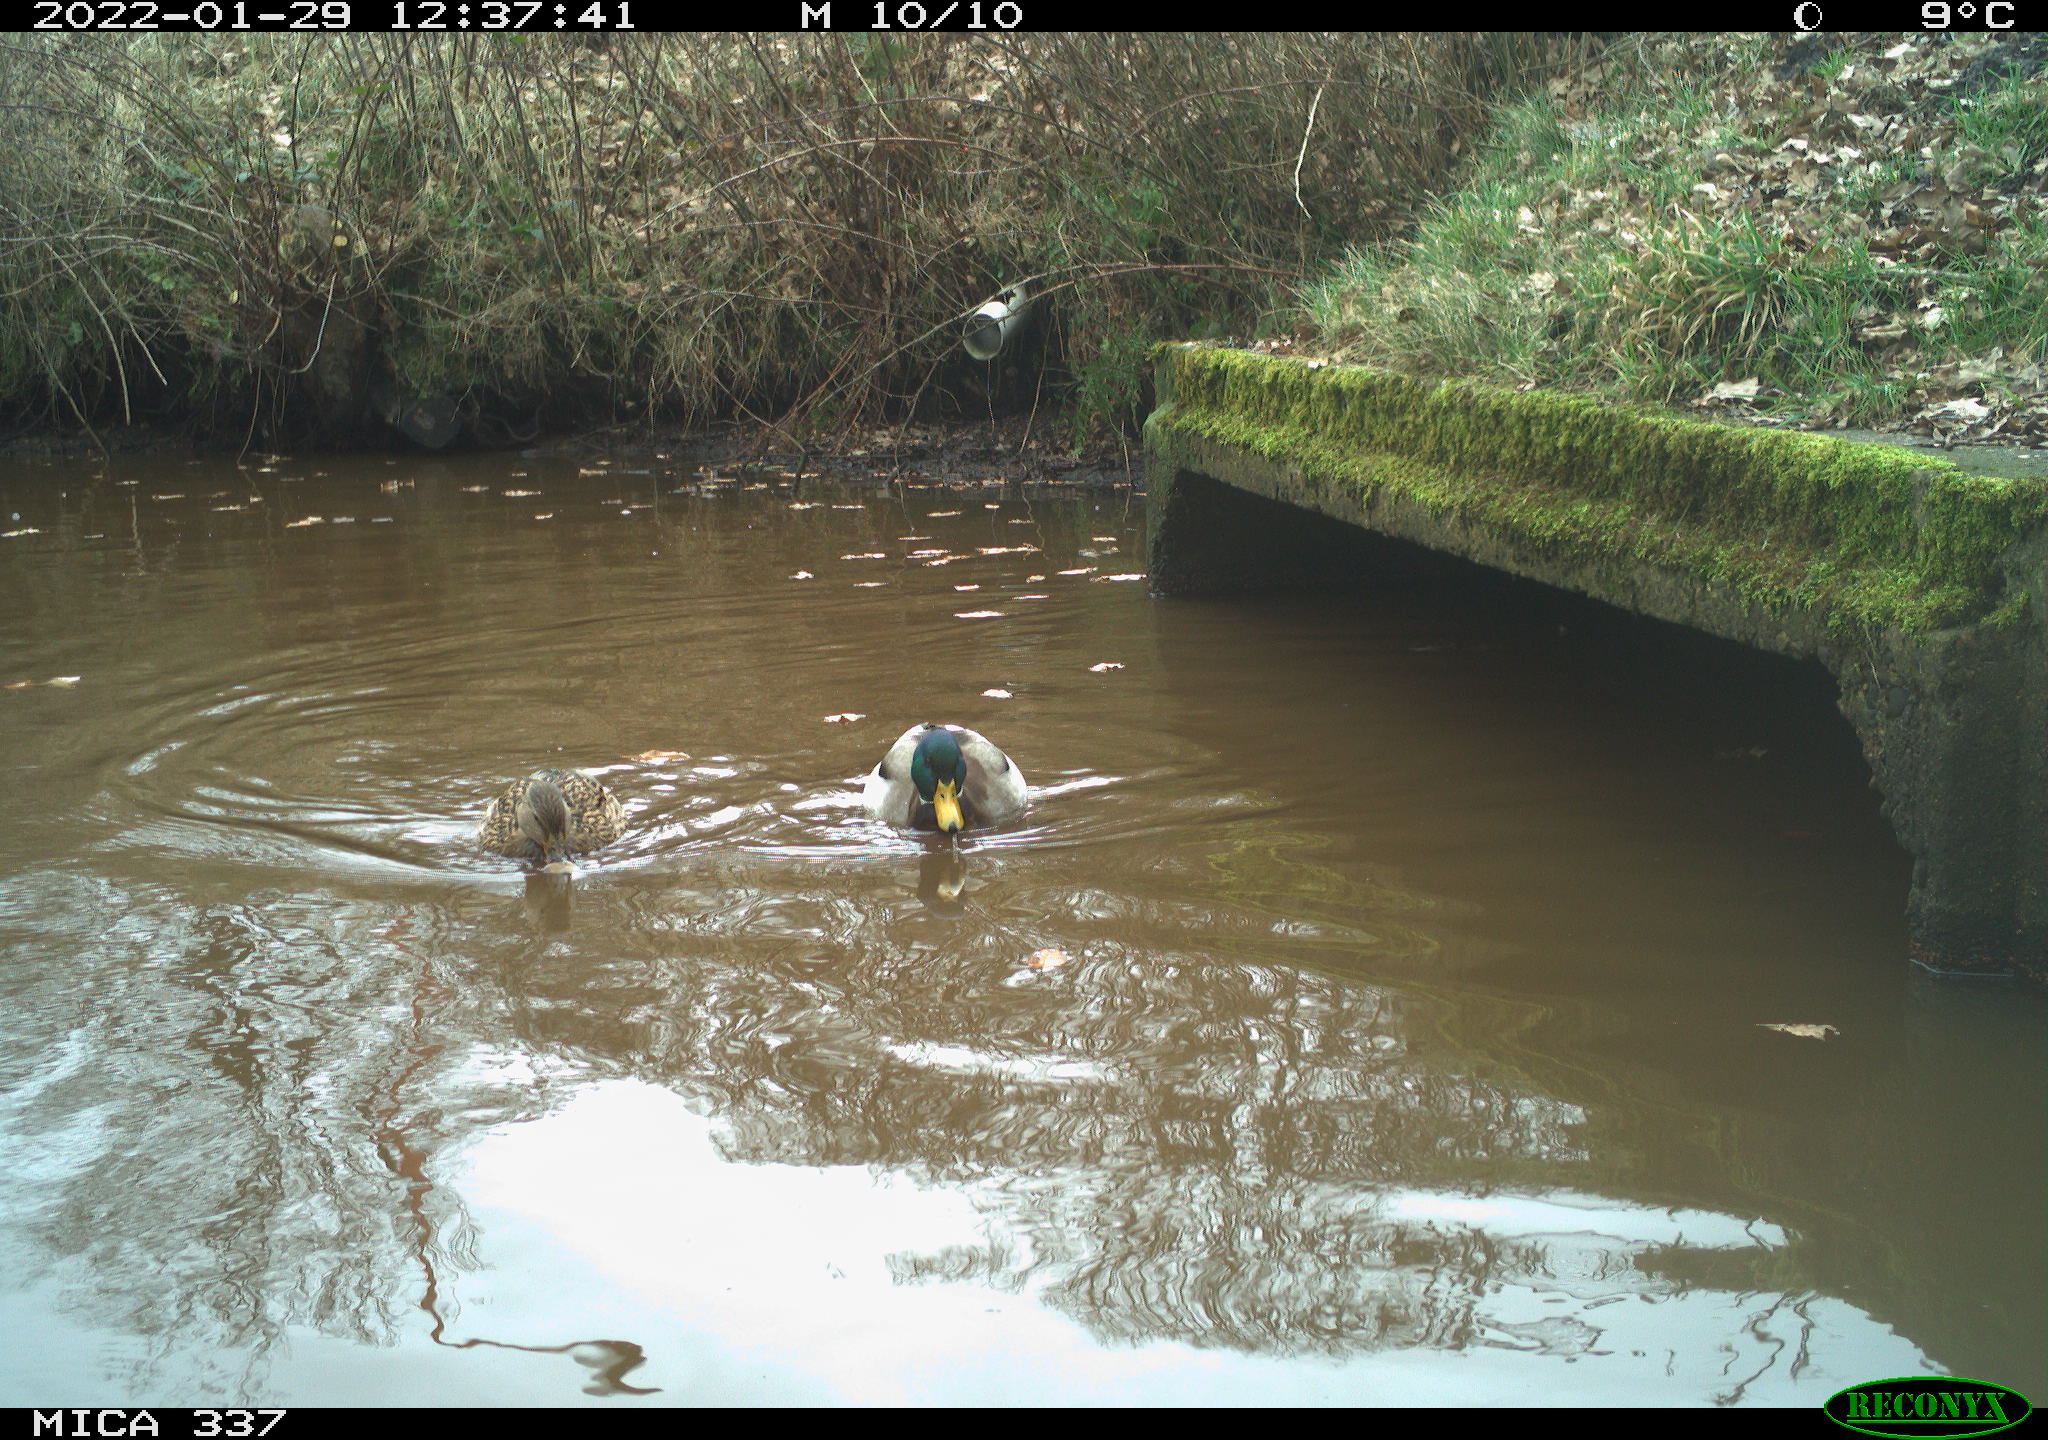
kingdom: Animalia
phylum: Chordata
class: Aves
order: Anseriformes
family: Anatidae
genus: Anas
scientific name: Anas platyrhynchos
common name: Mallard
